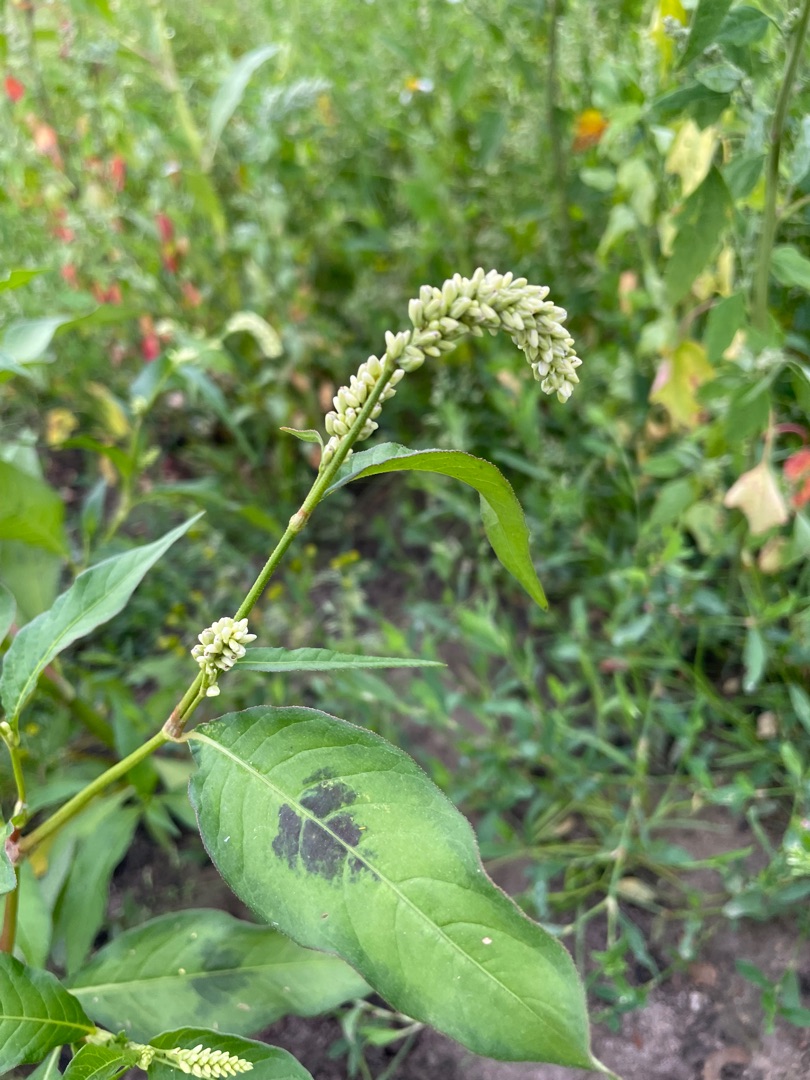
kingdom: Plantae
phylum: Tracheophyta
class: Magnoliopsida
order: Caryophyllales
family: Polygonaceae
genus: Persicaria
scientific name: Persicaria lapathifolia
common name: Bleg pileurt
